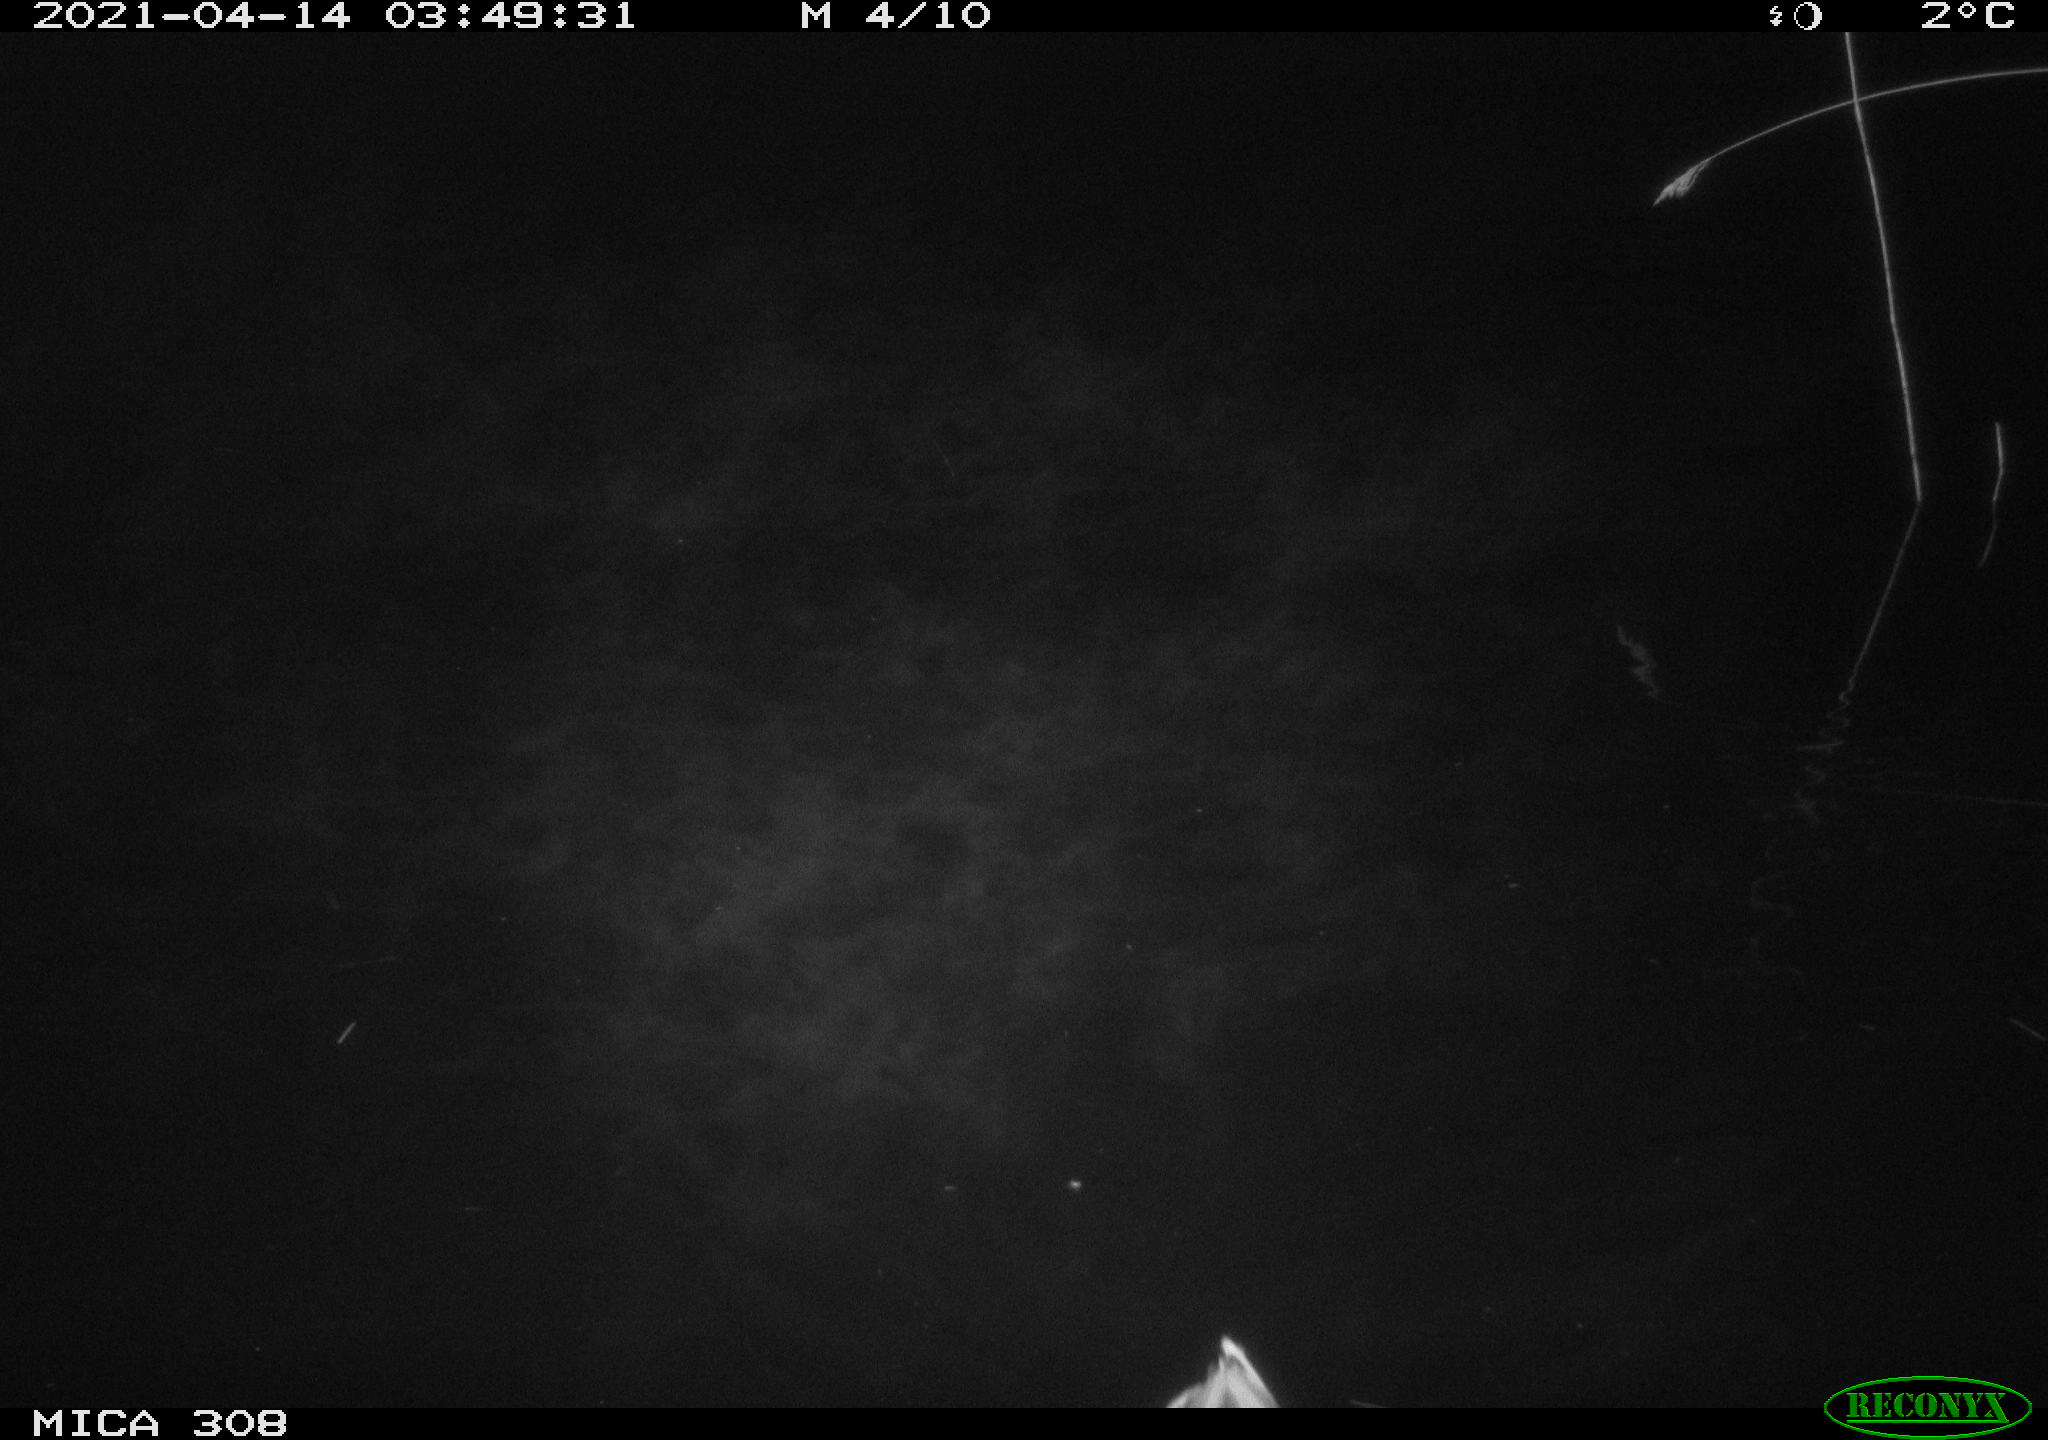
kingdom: Animalia
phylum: Chordata
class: Aves
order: Anseriformes
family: Anatidae
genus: Anas
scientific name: Anas platyrhynchos
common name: Mallard
